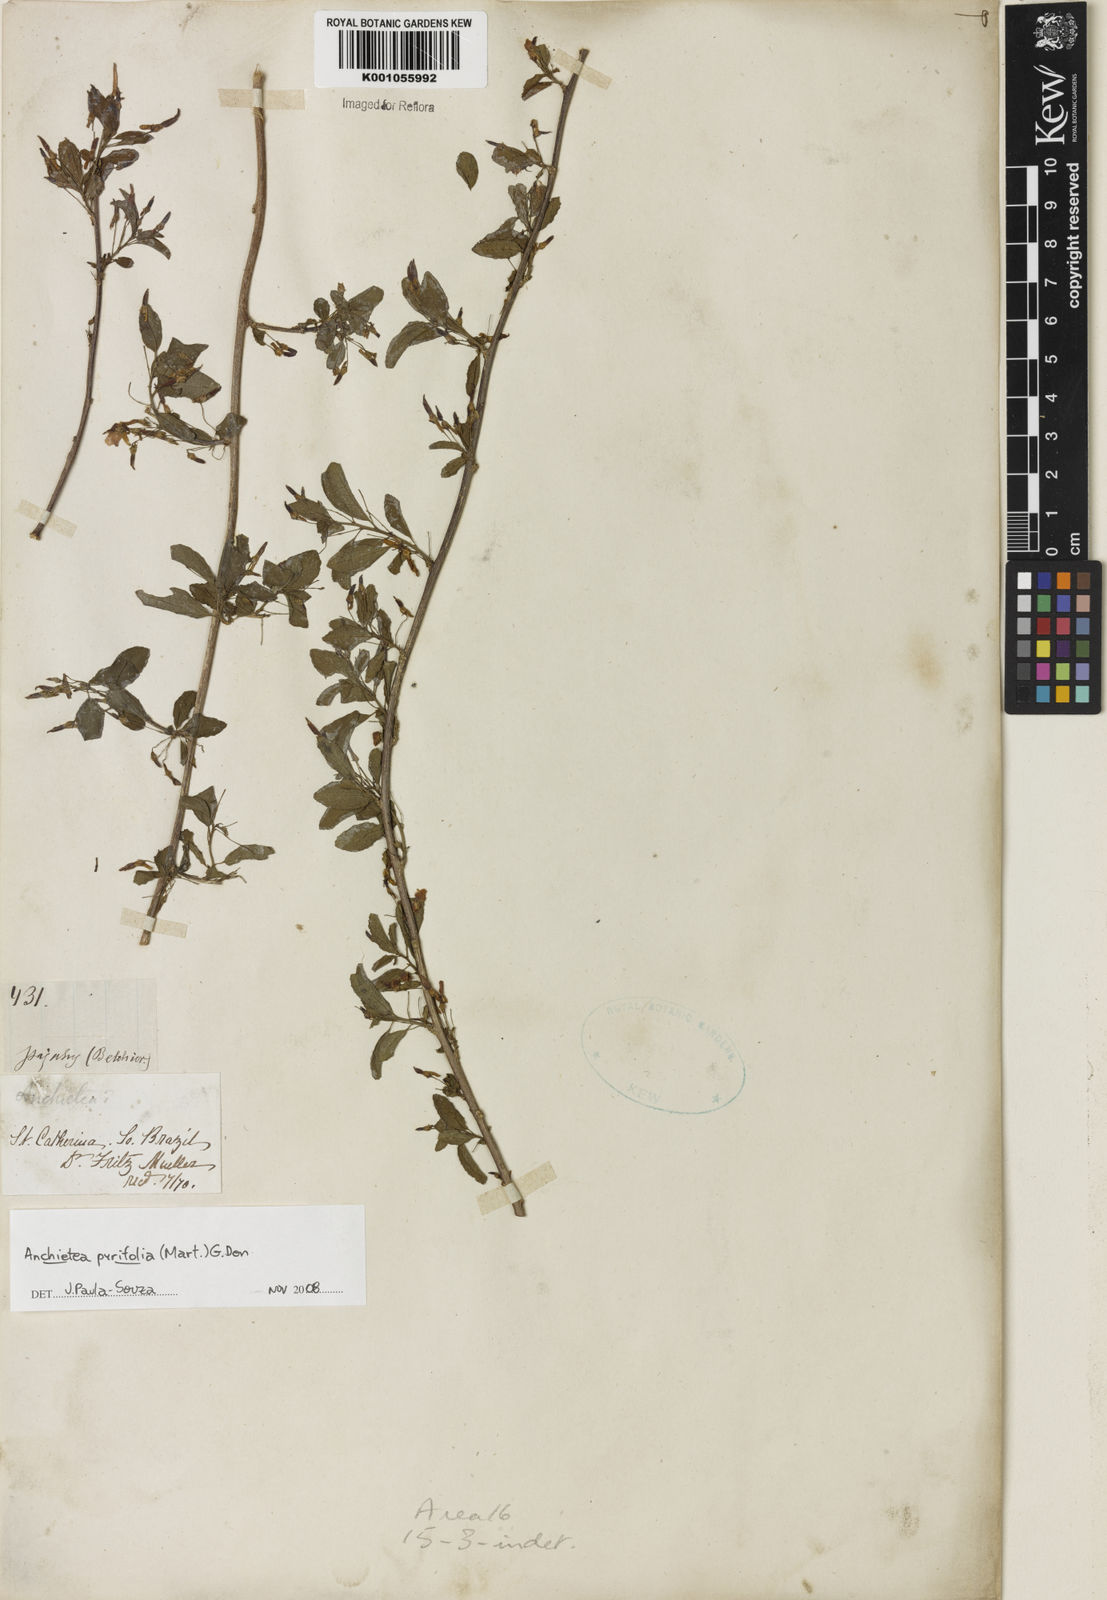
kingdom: Plantae
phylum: Tracheophyta
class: Magnoliopsida
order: Malpighiales
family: Violaceae
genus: Anchietea
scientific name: Anchietea pyrifolia
